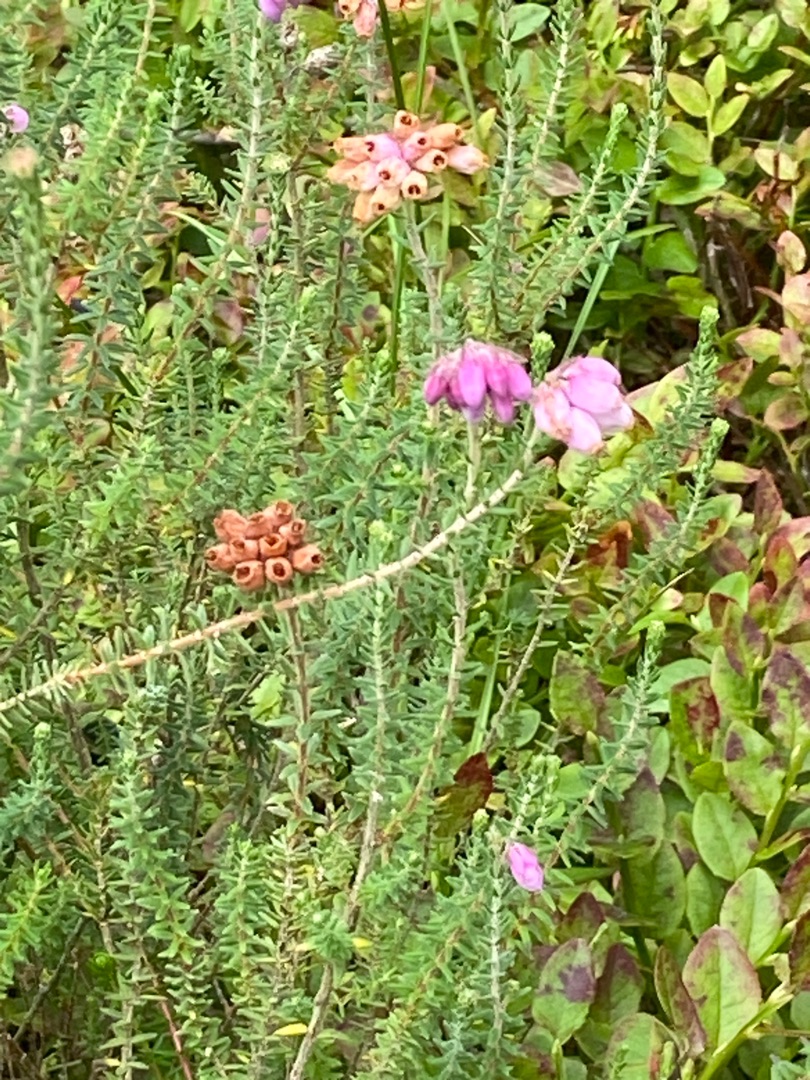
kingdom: Plantae
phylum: Tracheophyta
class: Magnoliopsida
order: Ericales
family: Ericaceae
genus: Erica
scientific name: Erica tetralix
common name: Klokkelyng
